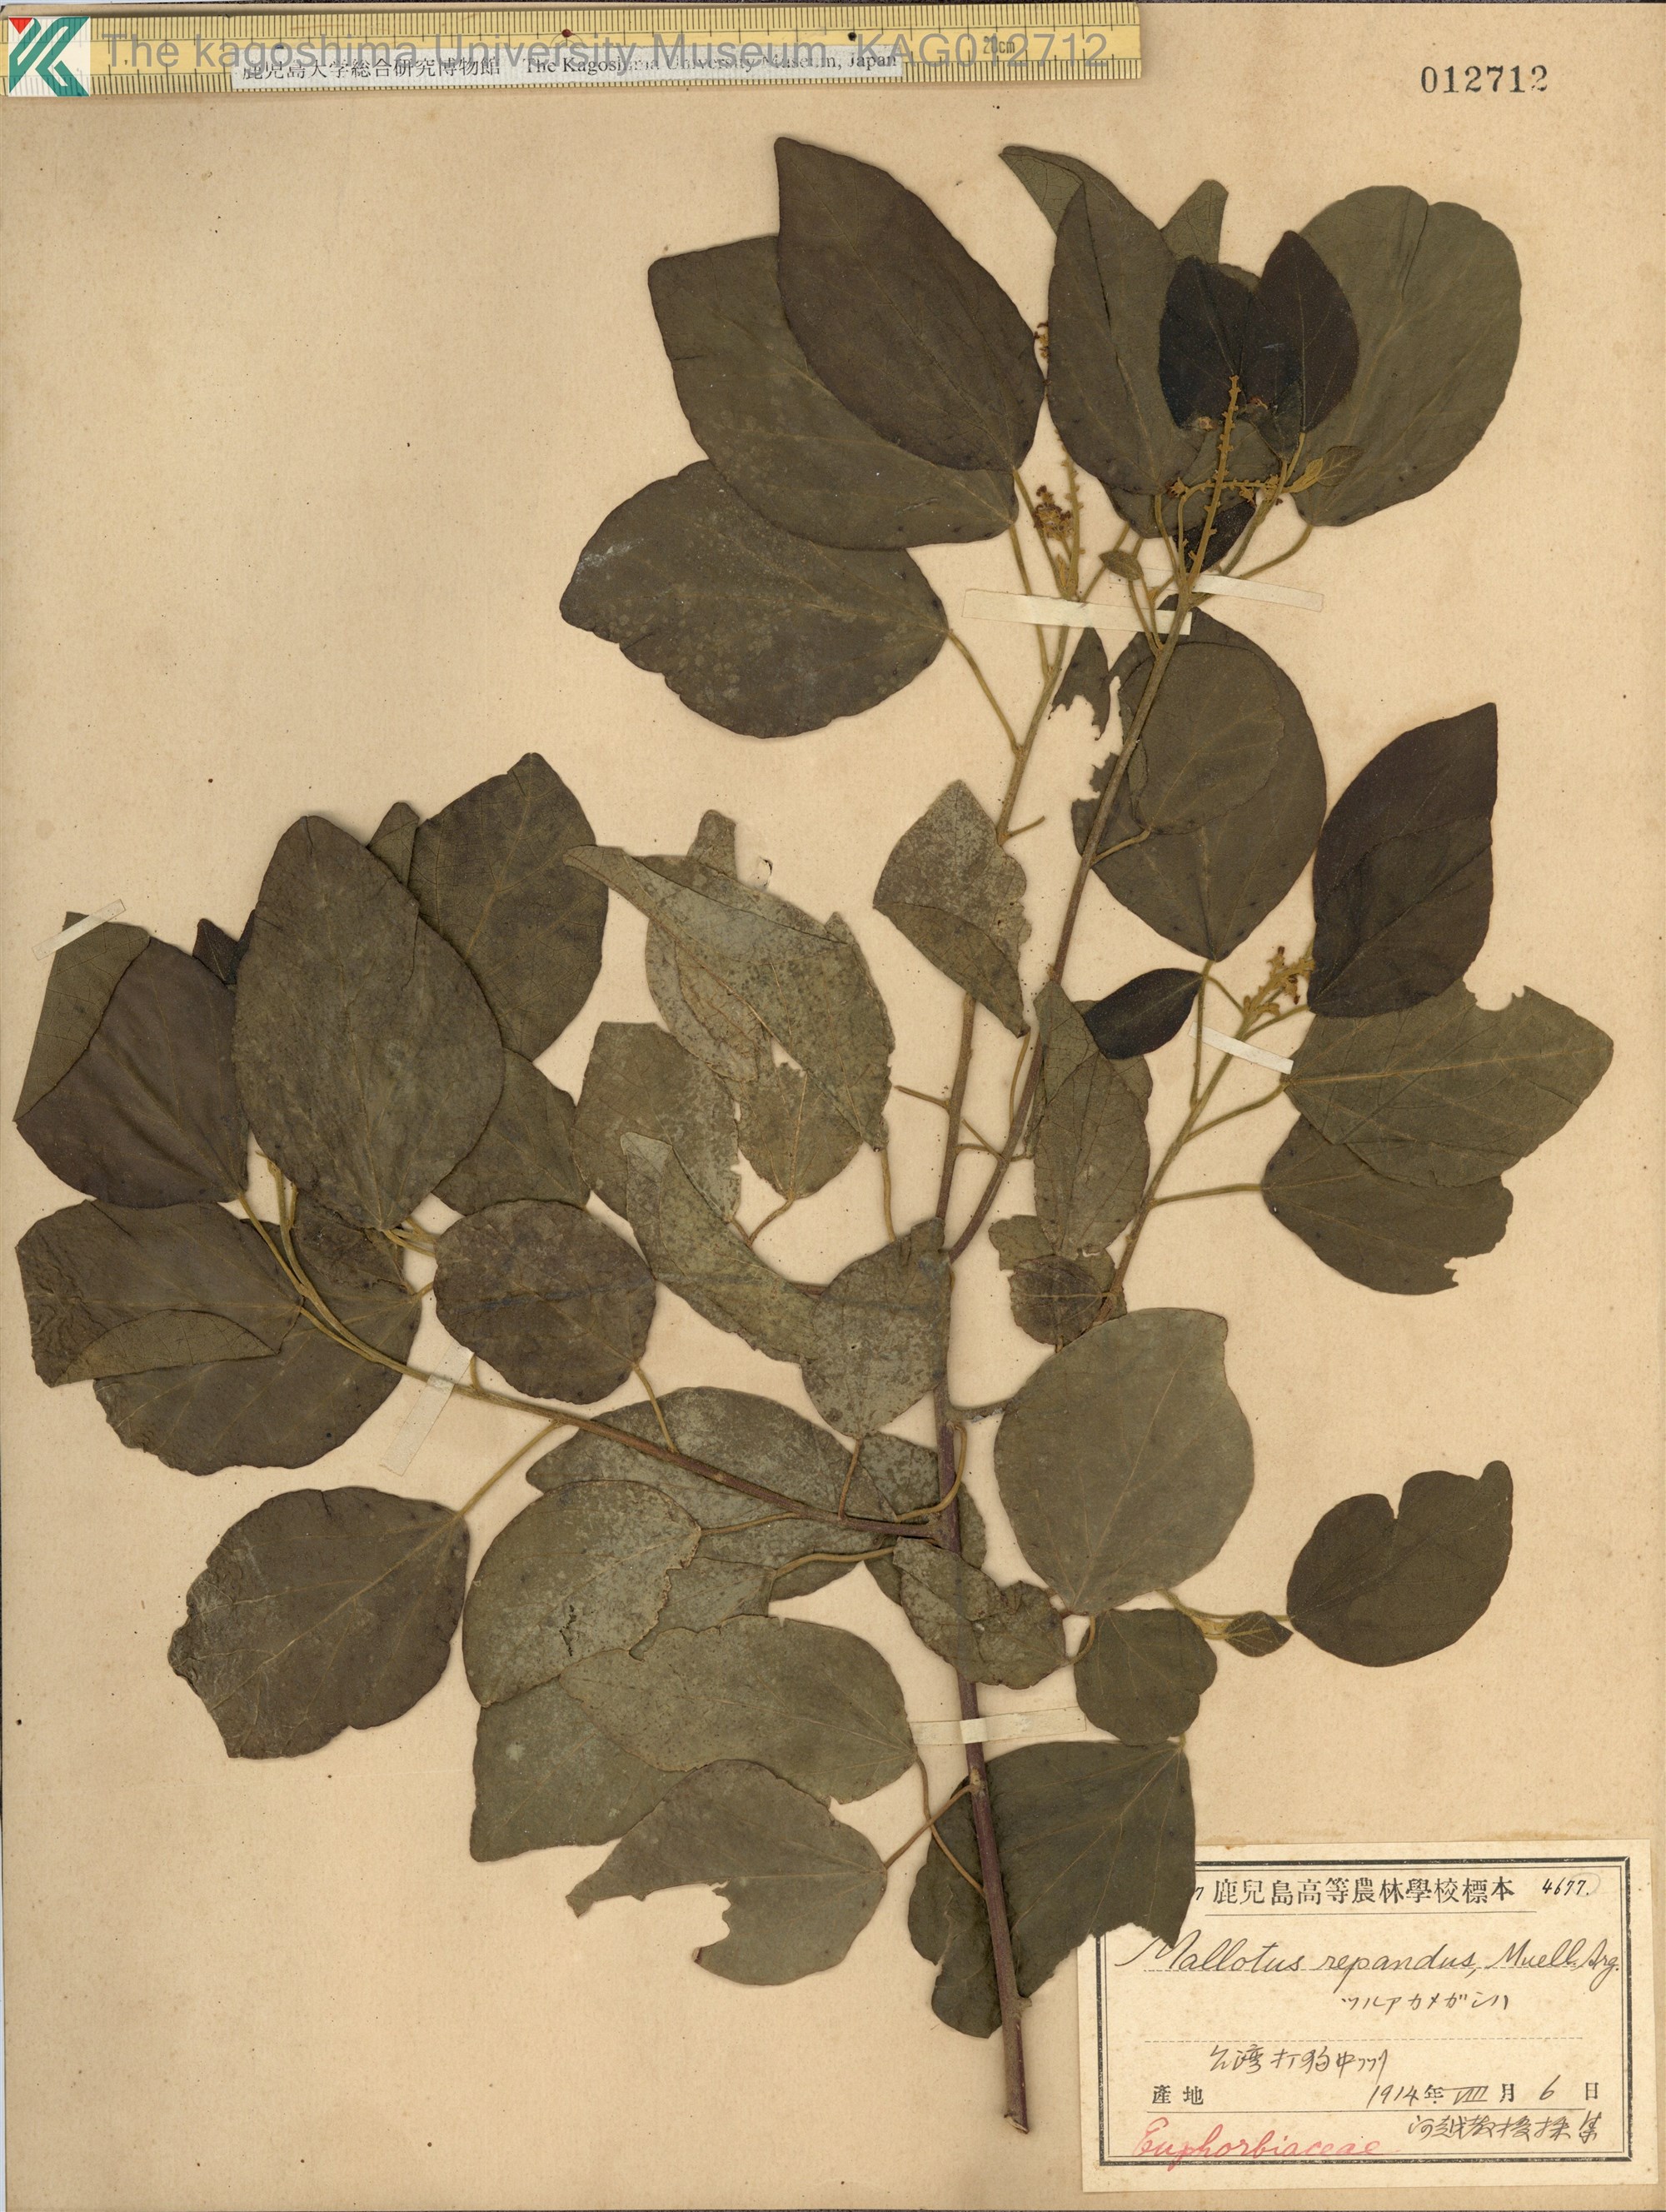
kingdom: Plantae
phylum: Tracheophyta
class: Magnoliopsida
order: Malpighiales
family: Euphorbiaceae
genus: Mallotus
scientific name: Mallotus repandus
